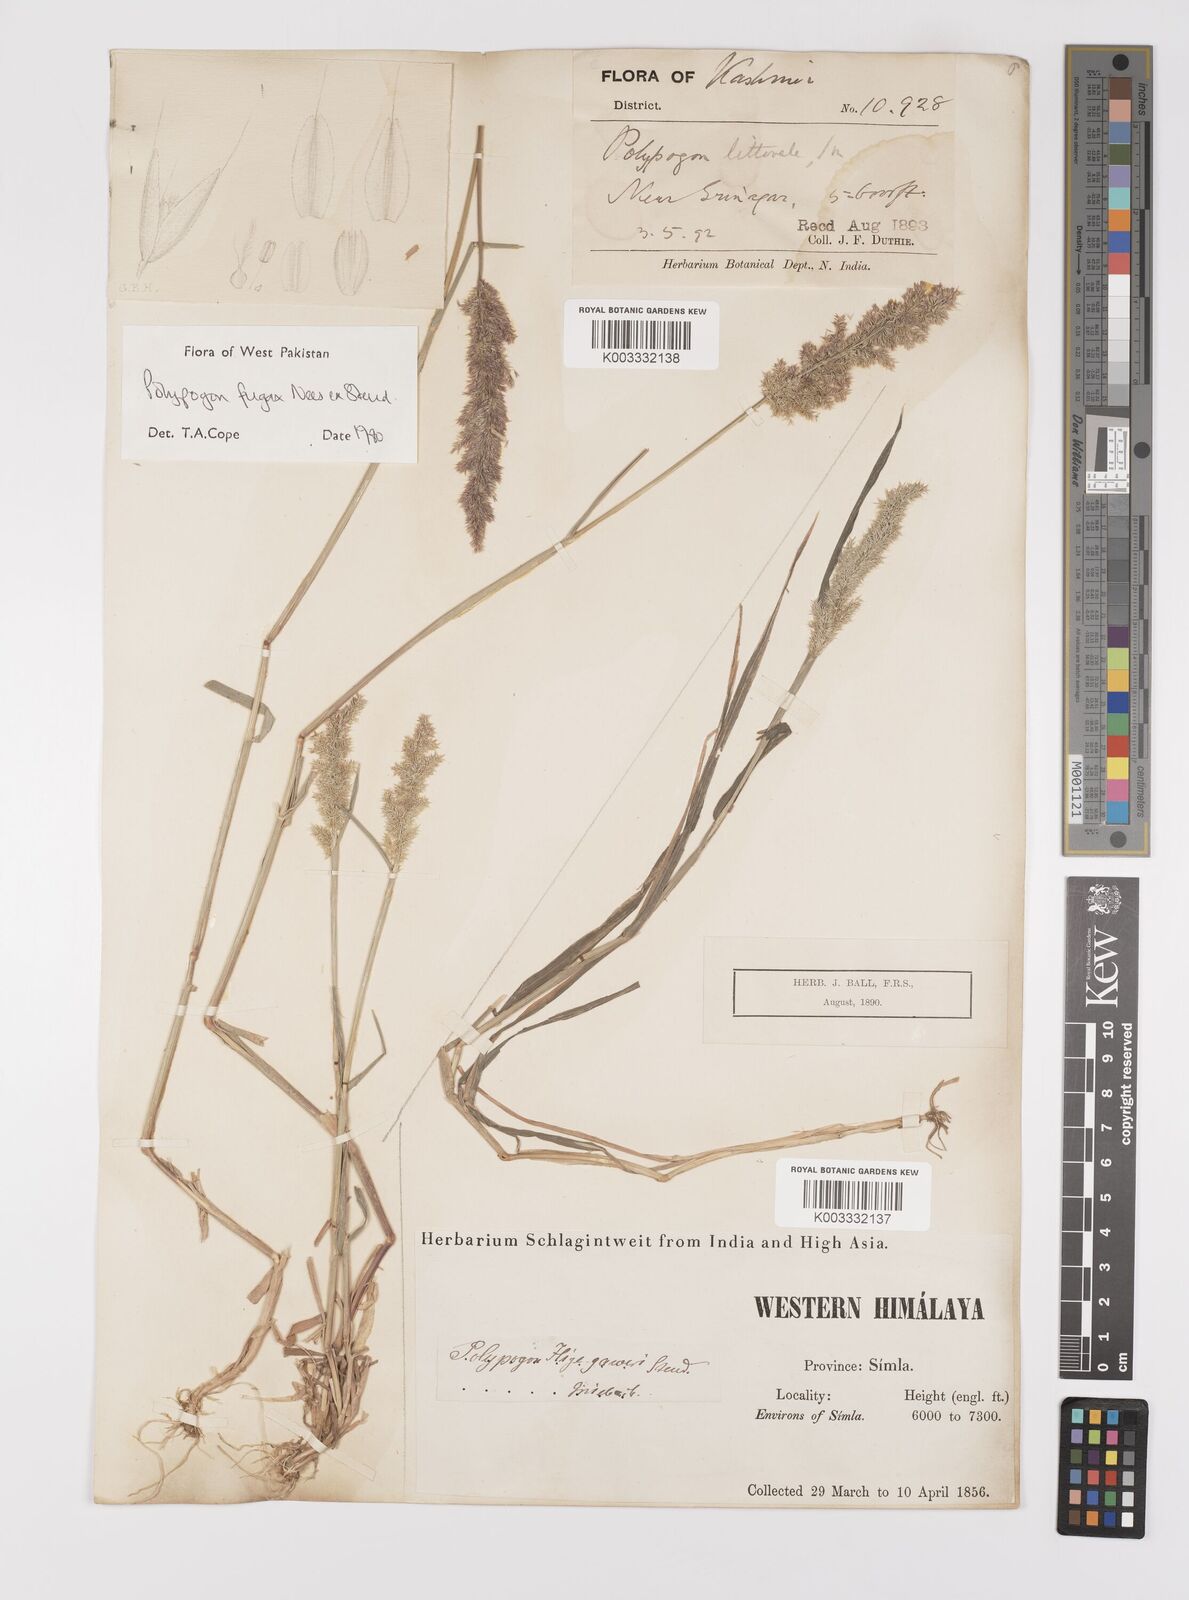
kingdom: Plantae
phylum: Tracheophyta
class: Liliopsida
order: Poales
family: Poaceae
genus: Polypogon
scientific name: Polypogon fugax
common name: Asia minor bluegrass
